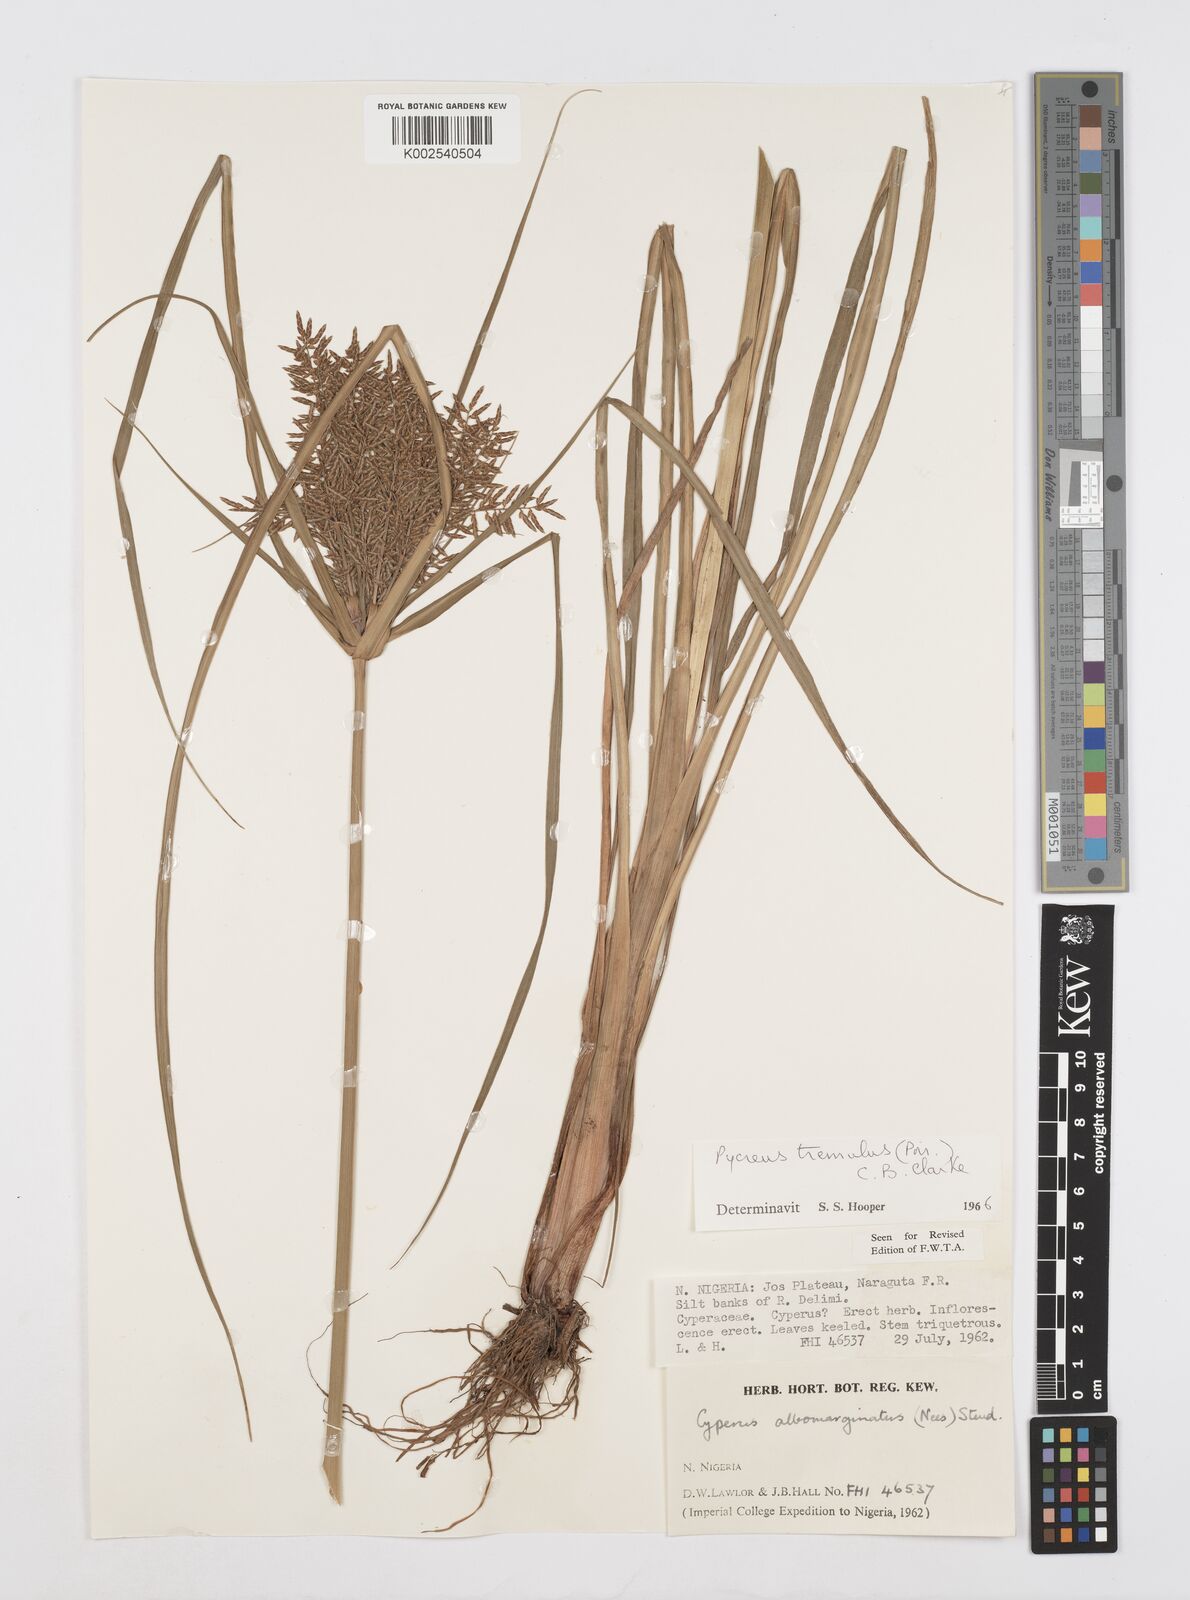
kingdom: Plantae
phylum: Tracheophyta
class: Liliopsida
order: Poales
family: Cyperaceae
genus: Cyperus
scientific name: Cyperus macrostachyos
